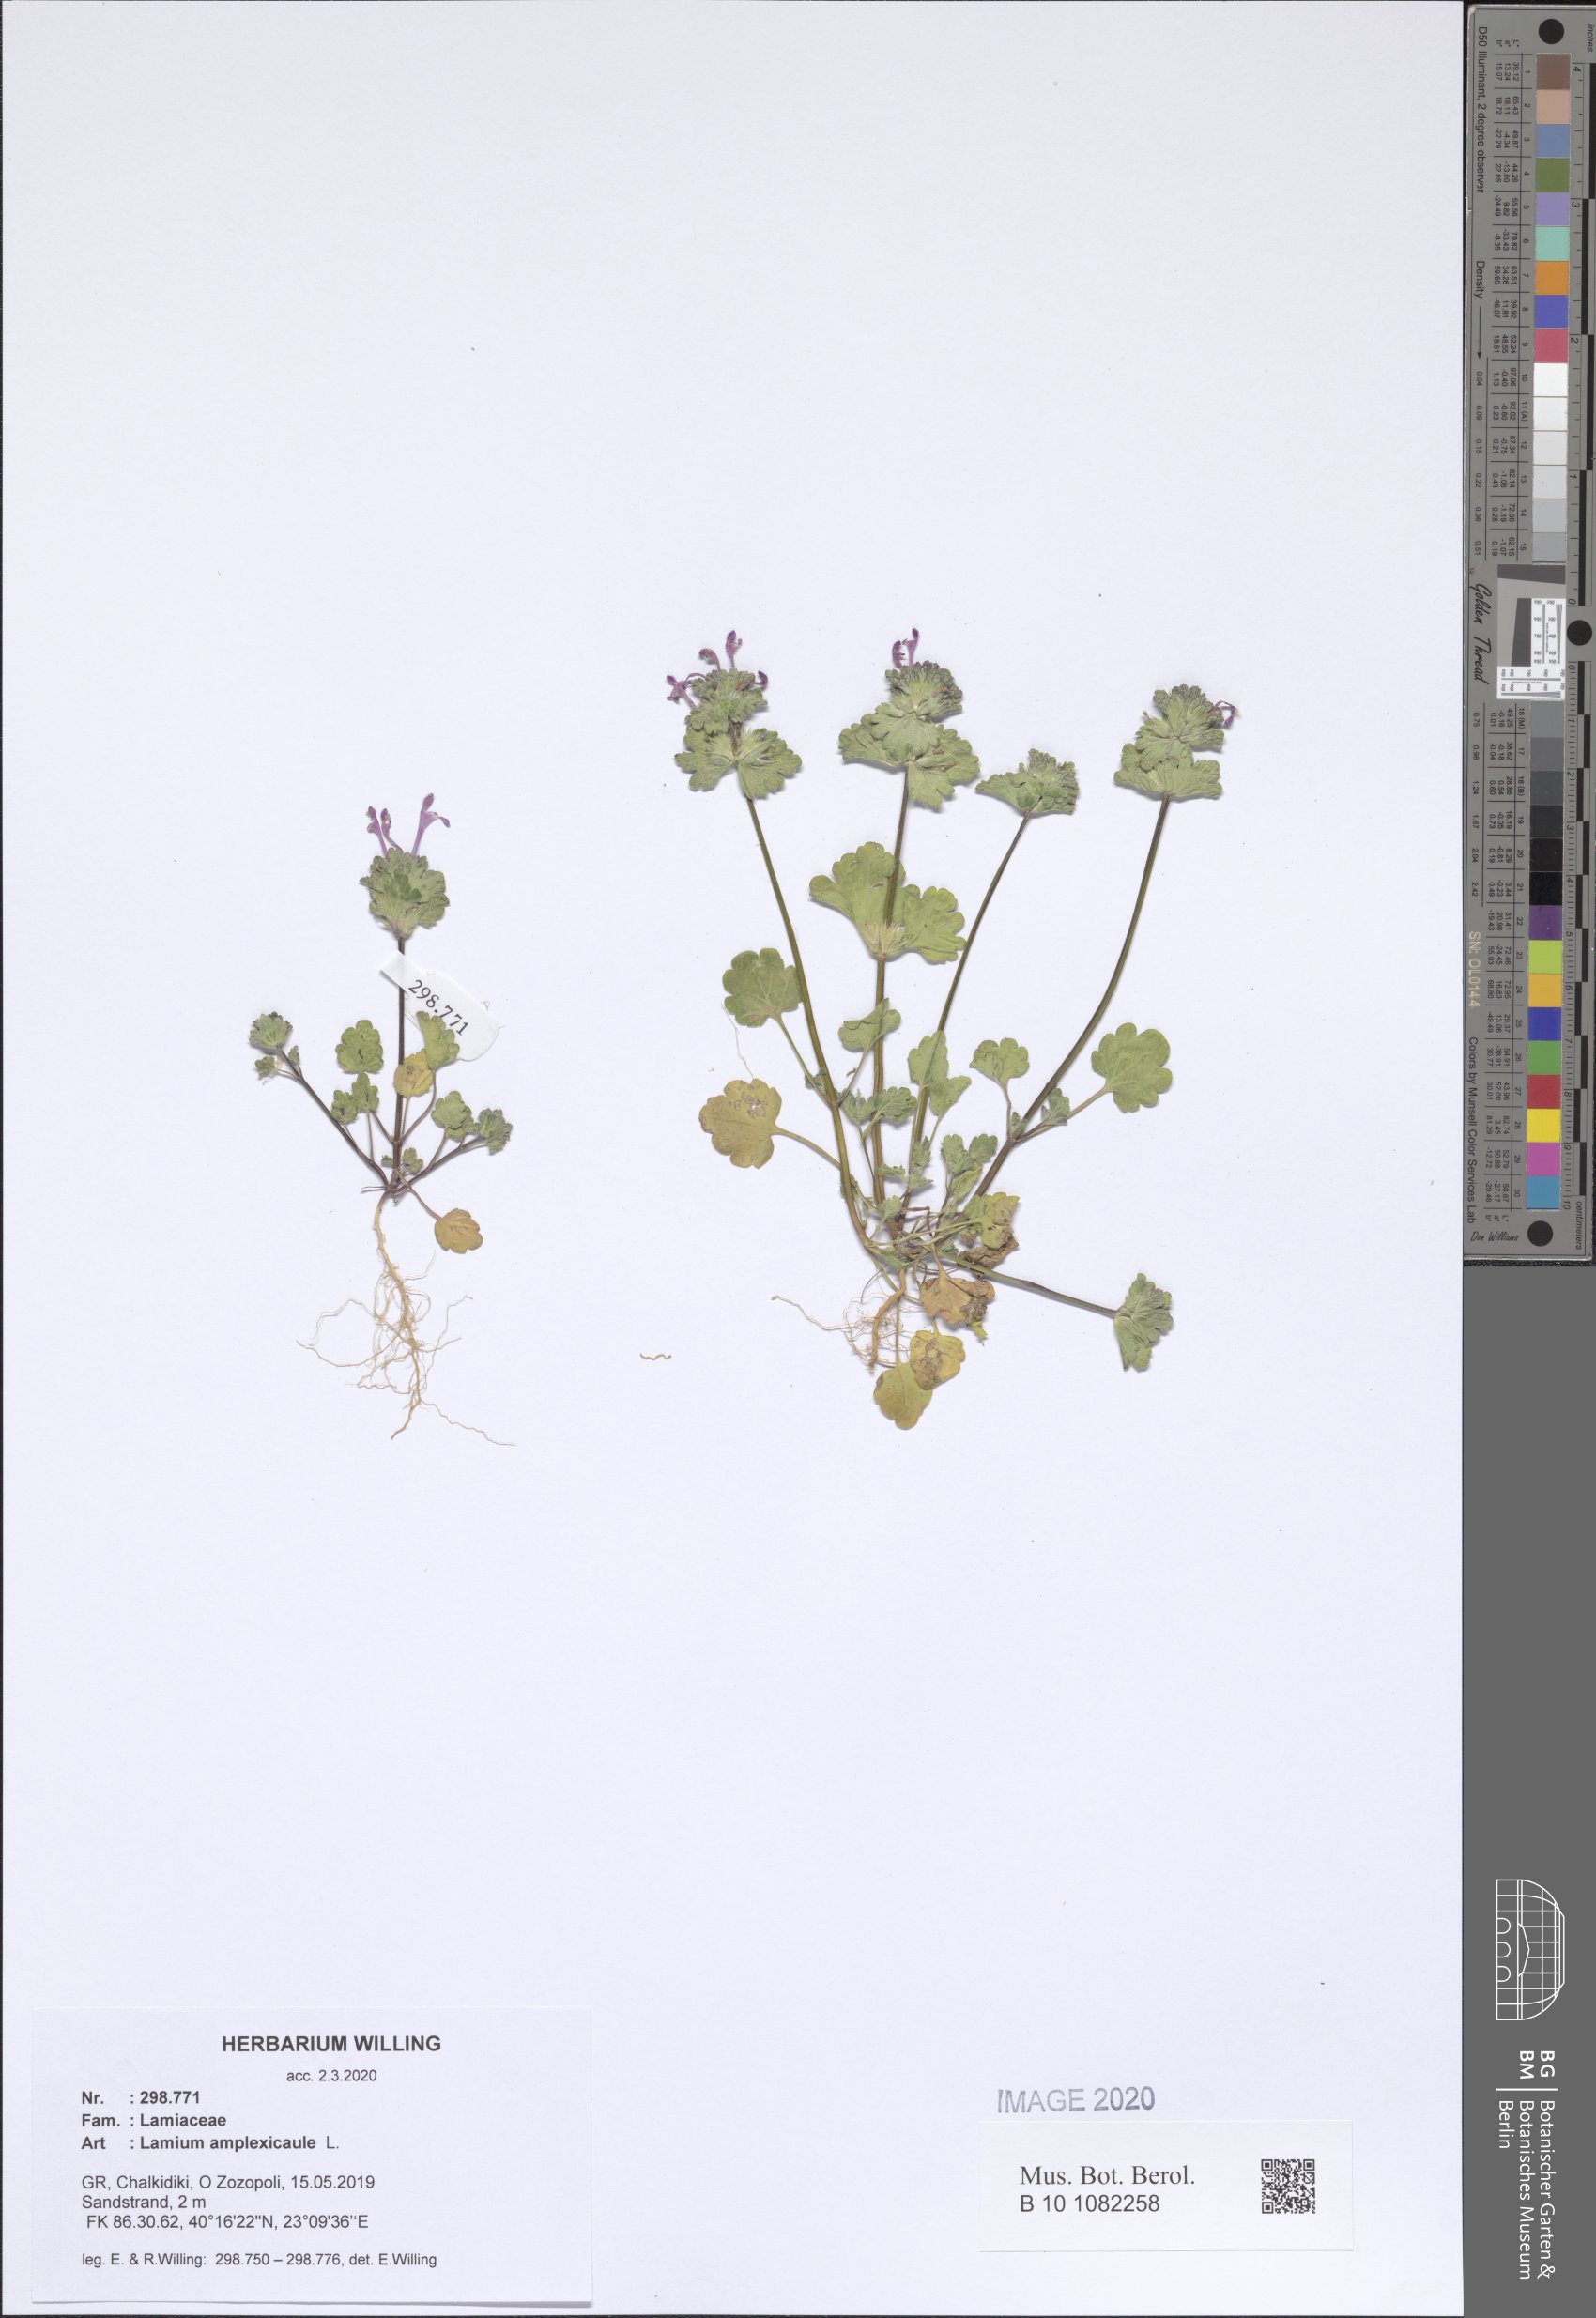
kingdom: Plantae
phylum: Tracheophyta
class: Magnoliopsida
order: Lamiales
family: Lamiaceae
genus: Lamium
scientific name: Lamium amplexicaule
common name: Henbit dead-nettle
